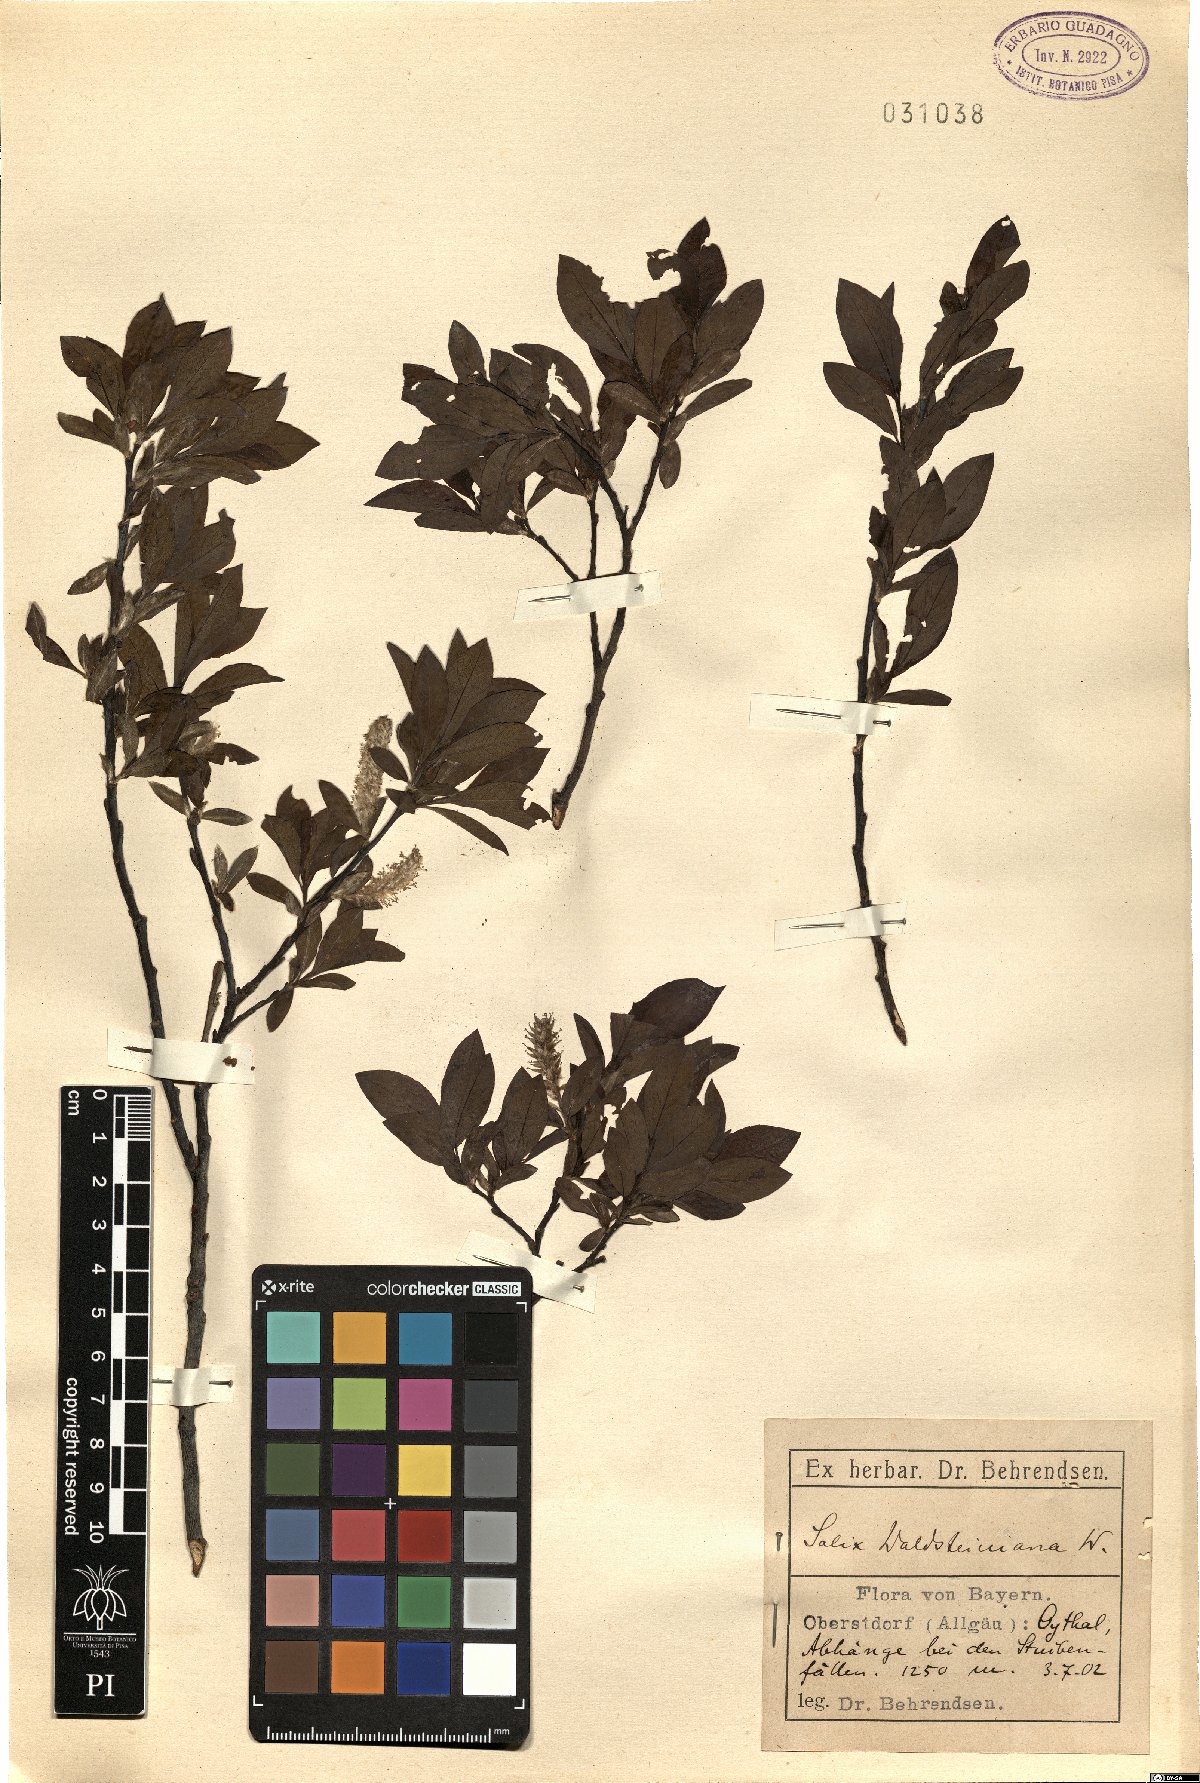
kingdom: Plantae
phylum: Tracheophyta
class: Magnoliopsida
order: Malpighiales
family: Salicaceae
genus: Salix
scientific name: Salix waldsteiniana
